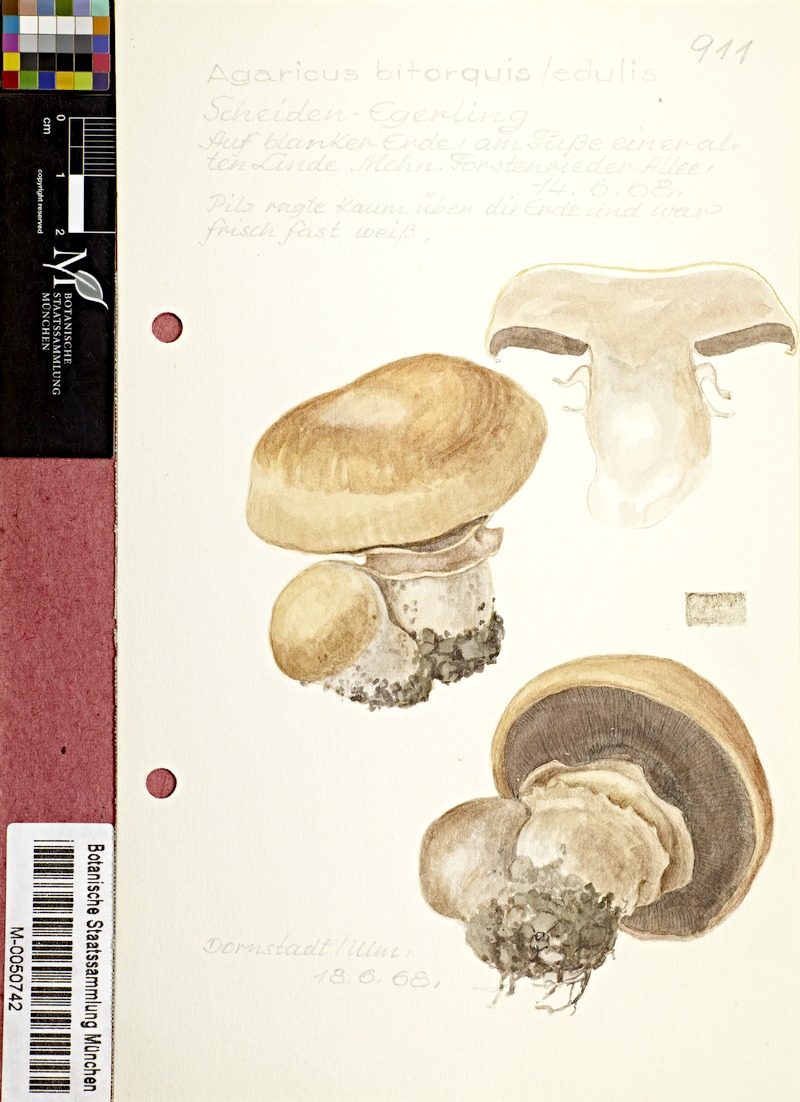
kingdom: Fungi
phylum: Basidiomycota
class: Agaricomycetes
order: Agaricales
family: Agaricaceae
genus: Agaricus
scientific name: Agaricus bitorquis
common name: Pavement mushroom
